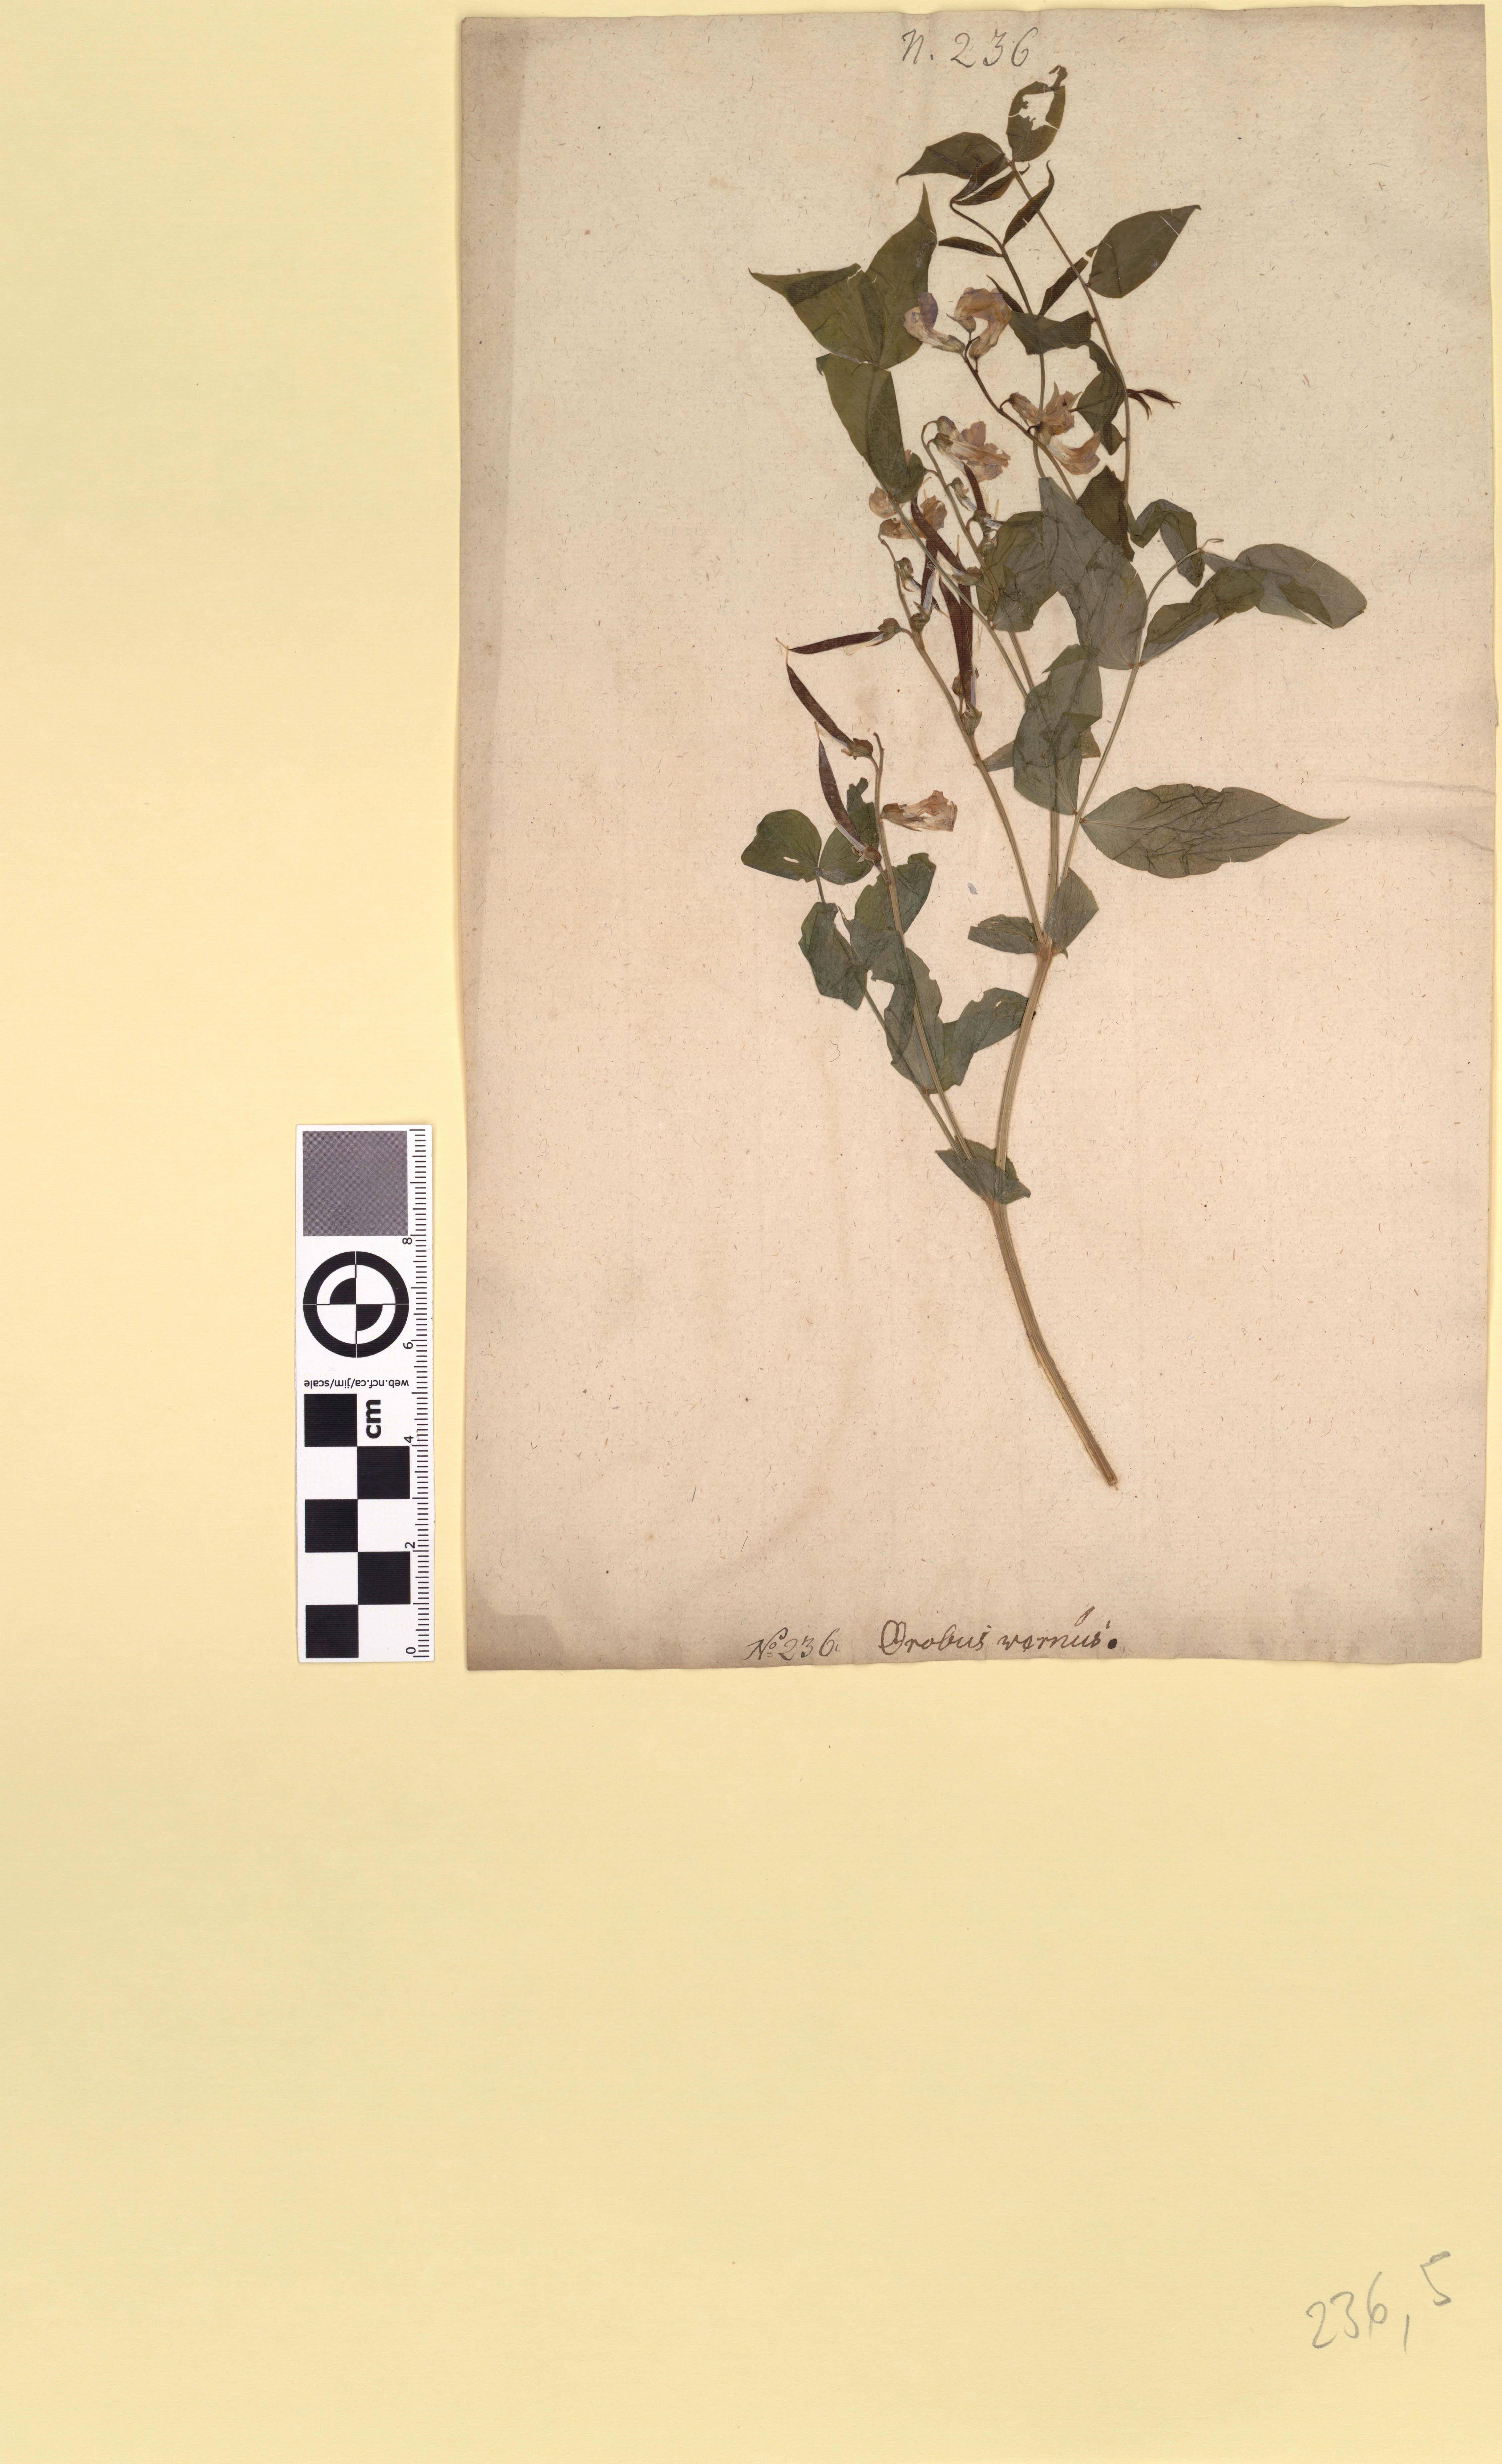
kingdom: Plantae
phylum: Tracheophyta
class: Magnoliopsida
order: Fabales
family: Fabaceae
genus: Lathyrus
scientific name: Lathyrus vernus
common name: Spring pea
